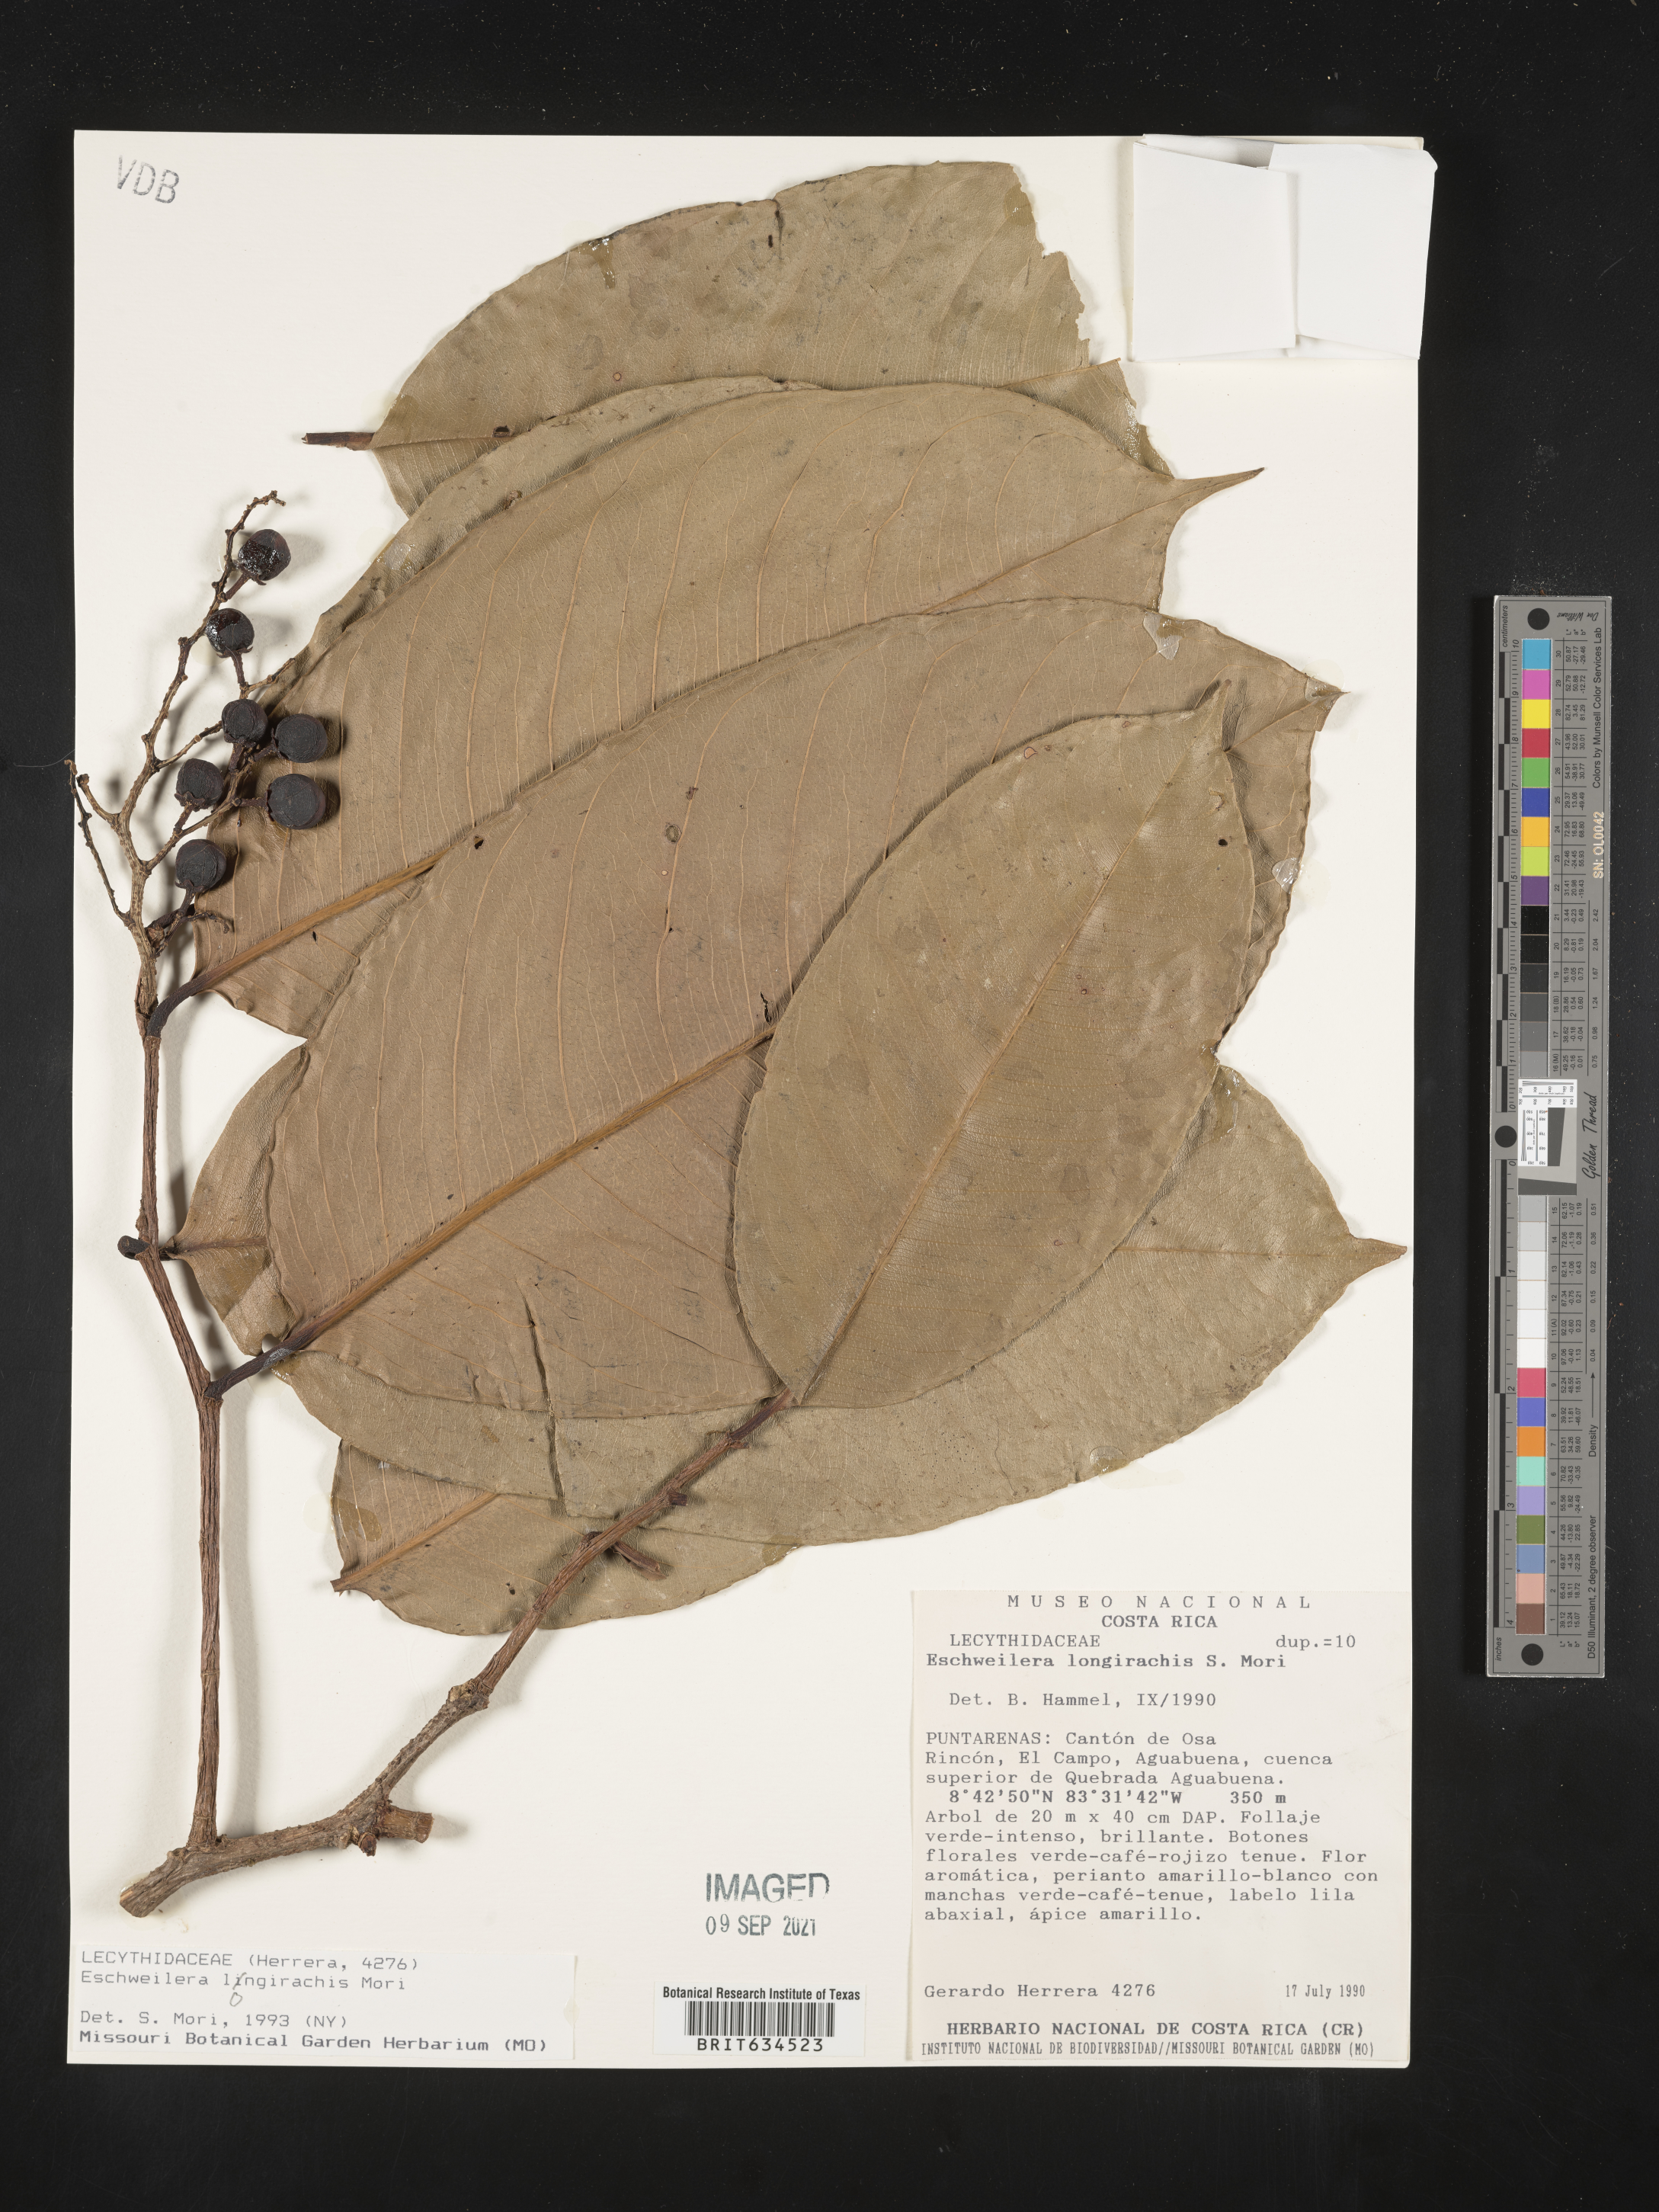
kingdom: Plantae
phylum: Tracheophyta
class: Magnoliopsida
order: Ericales
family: Lecythidaceae
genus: Eschweilera
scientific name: Eschweilera
